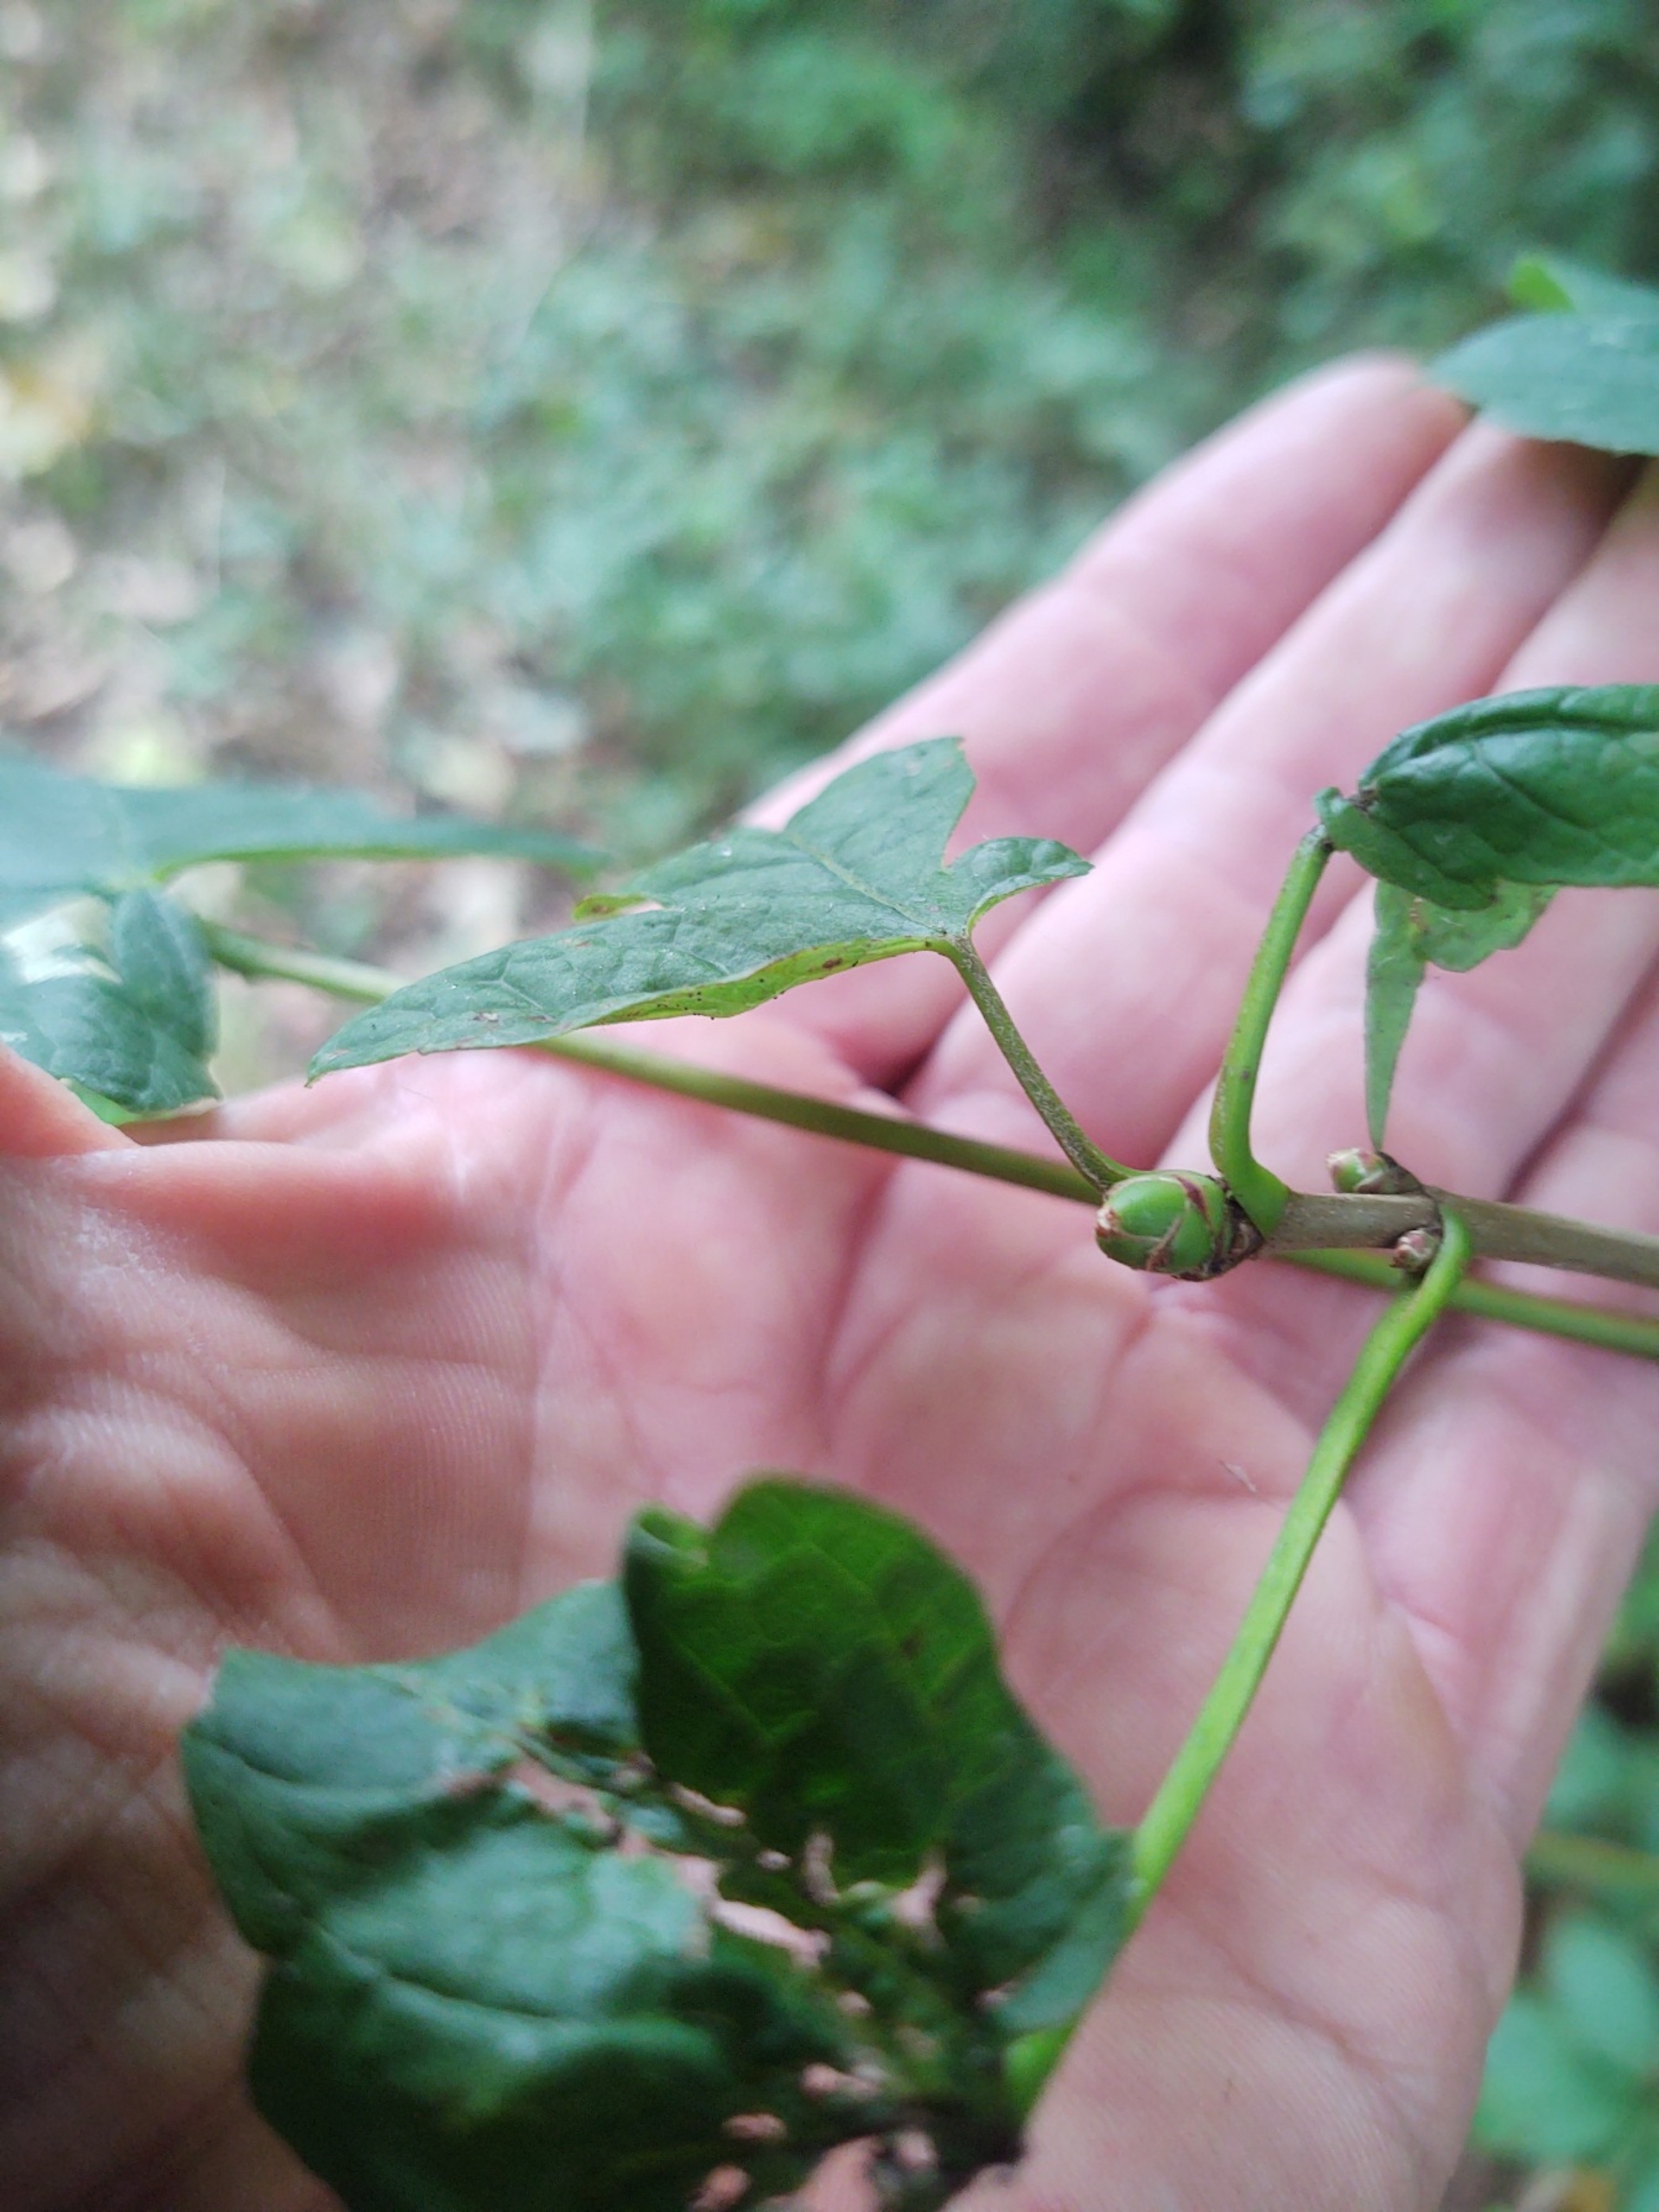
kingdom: Plantae
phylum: Tracheophyta
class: Magnoliopsida
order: Sapindales
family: Sapindaceae
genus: Acer
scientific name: Acer pseudoplatanus
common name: Ahorn
